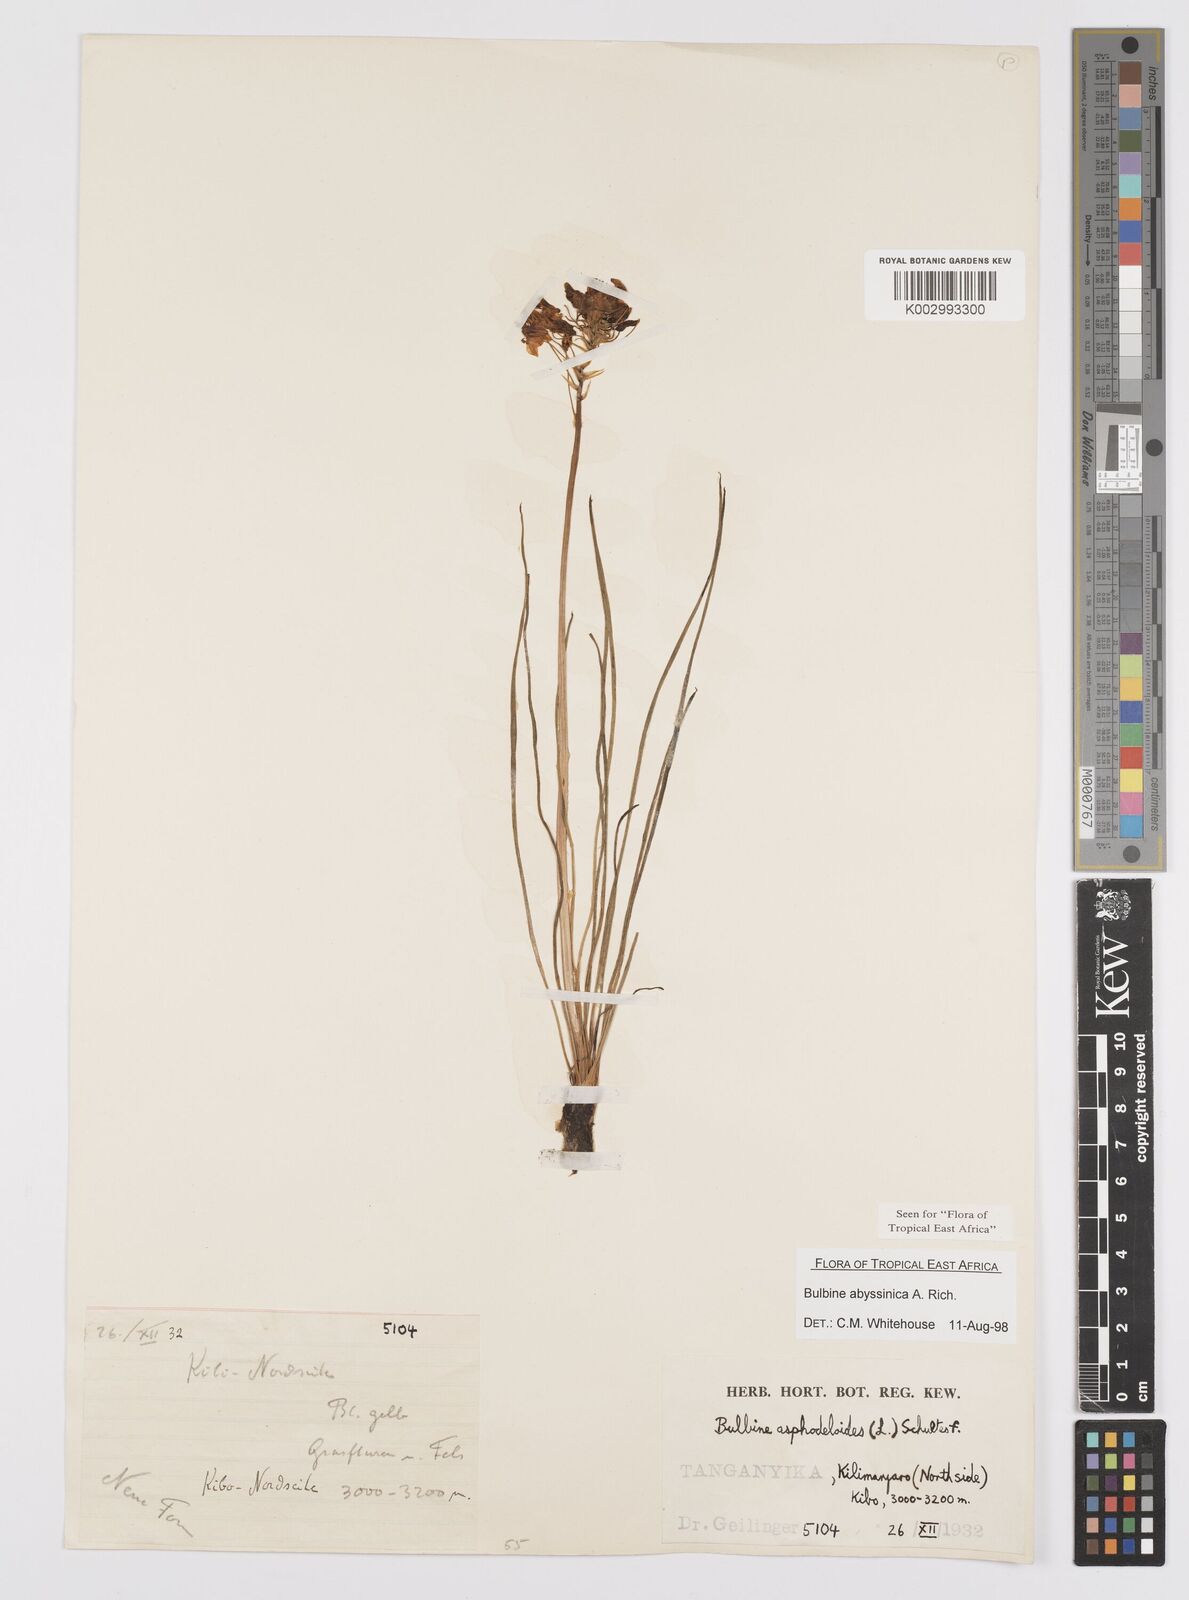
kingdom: Plantae
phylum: Tracheophyta
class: Liliopsida
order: Asparagales
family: Asphodelaceae
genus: Bulbine
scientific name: Bulbine abyssinica
